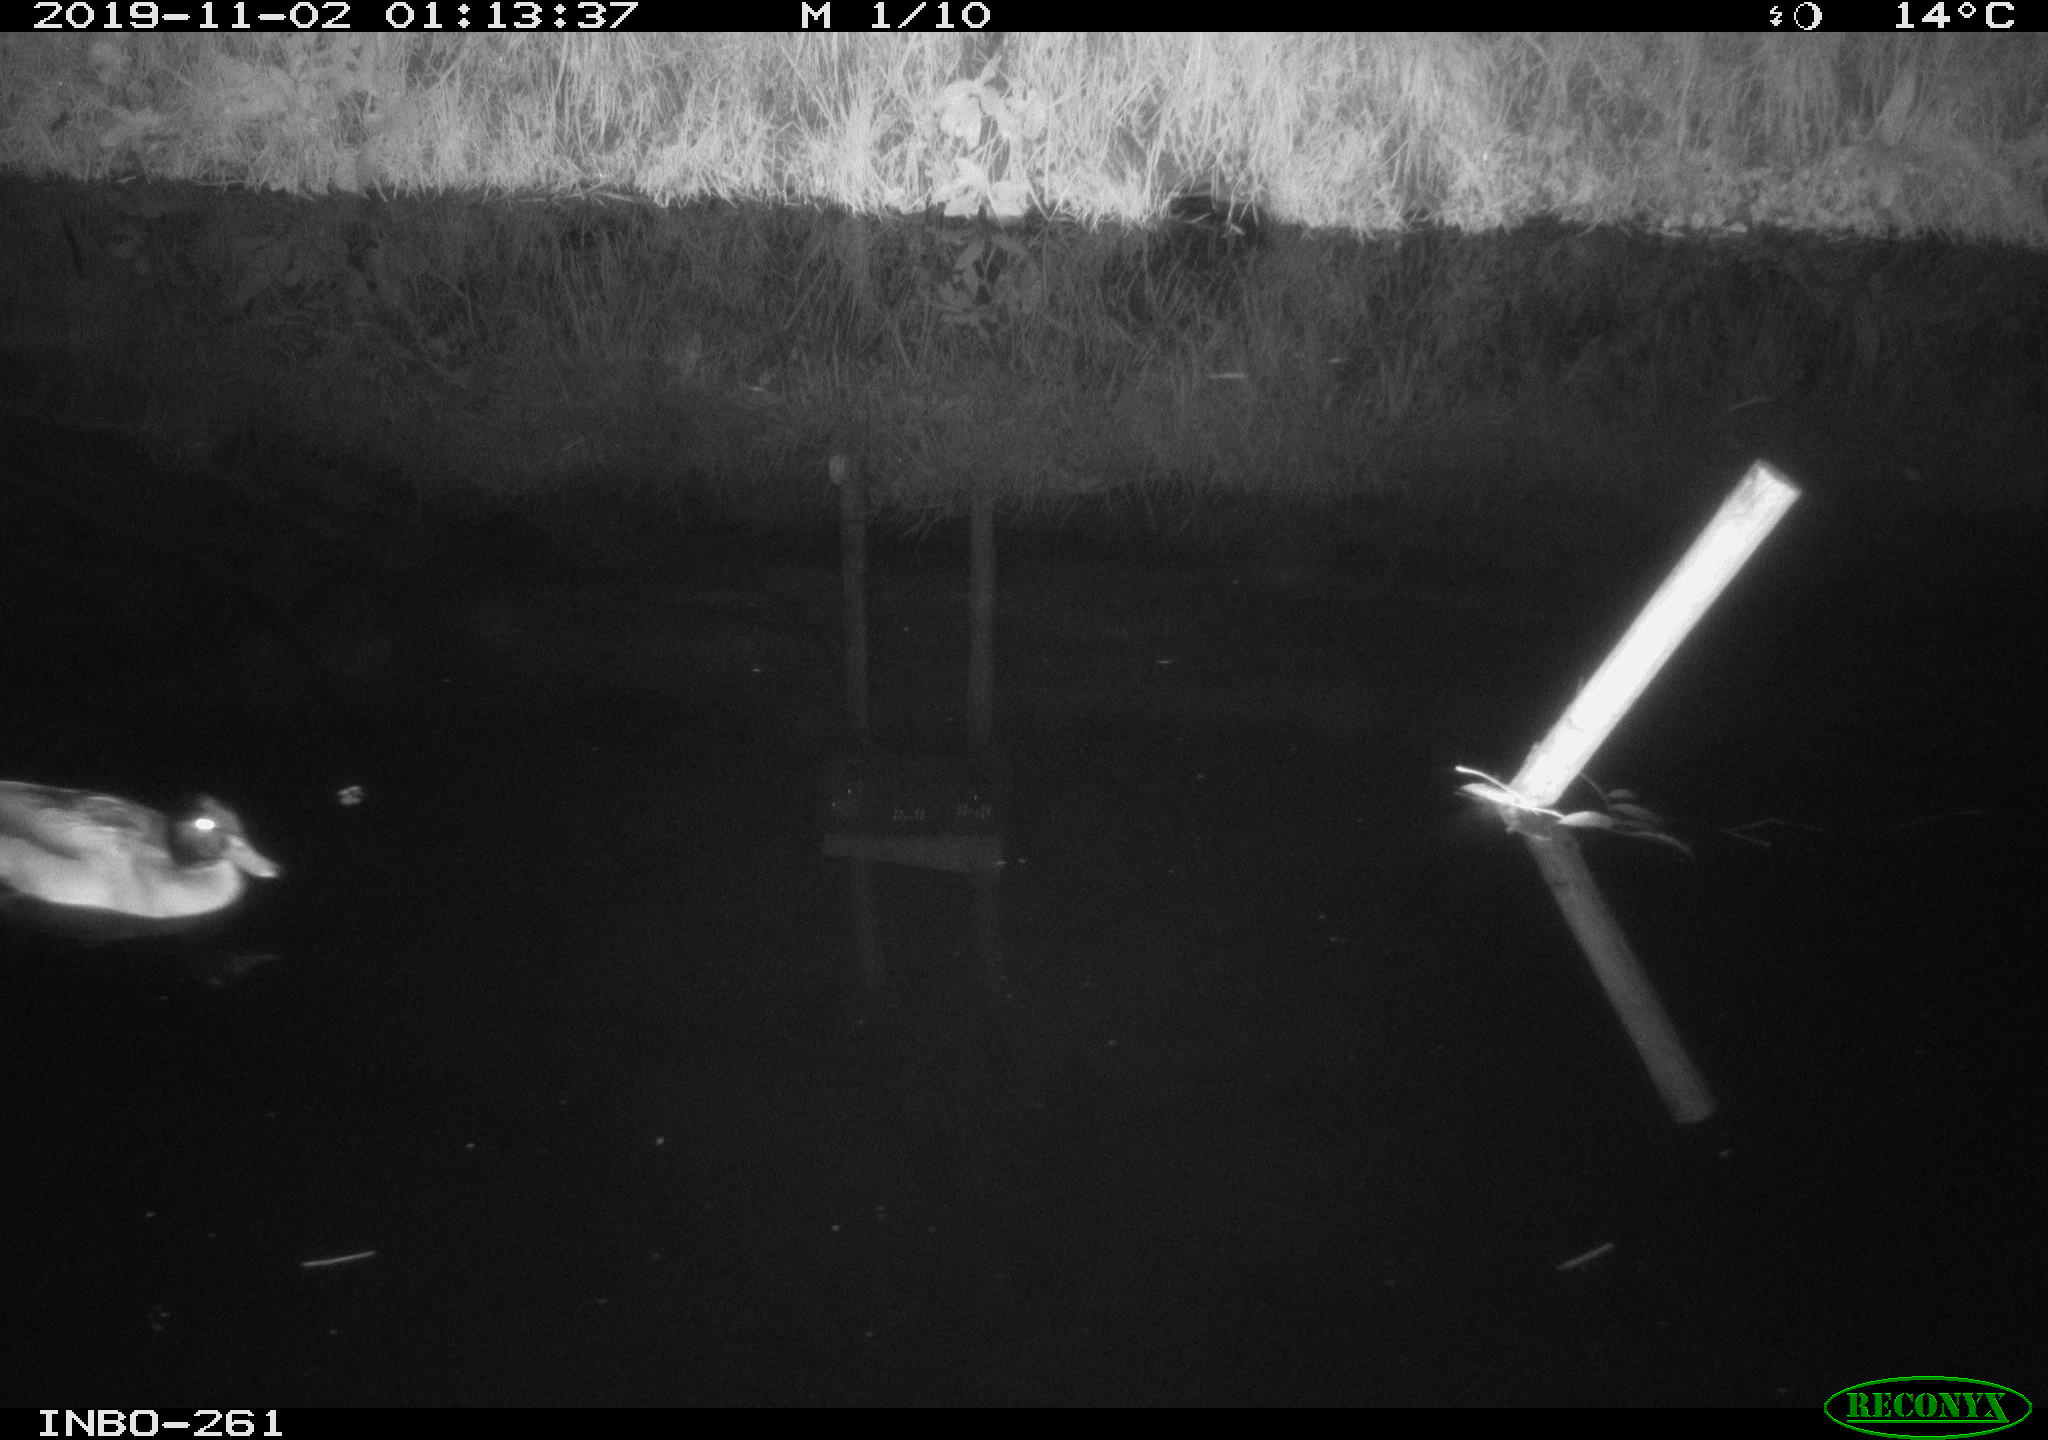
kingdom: Animalia
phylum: Chordata
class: Aves
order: Anseriformes
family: Anatidae
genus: Anas
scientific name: Anas platyrhynchos
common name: Mallard
